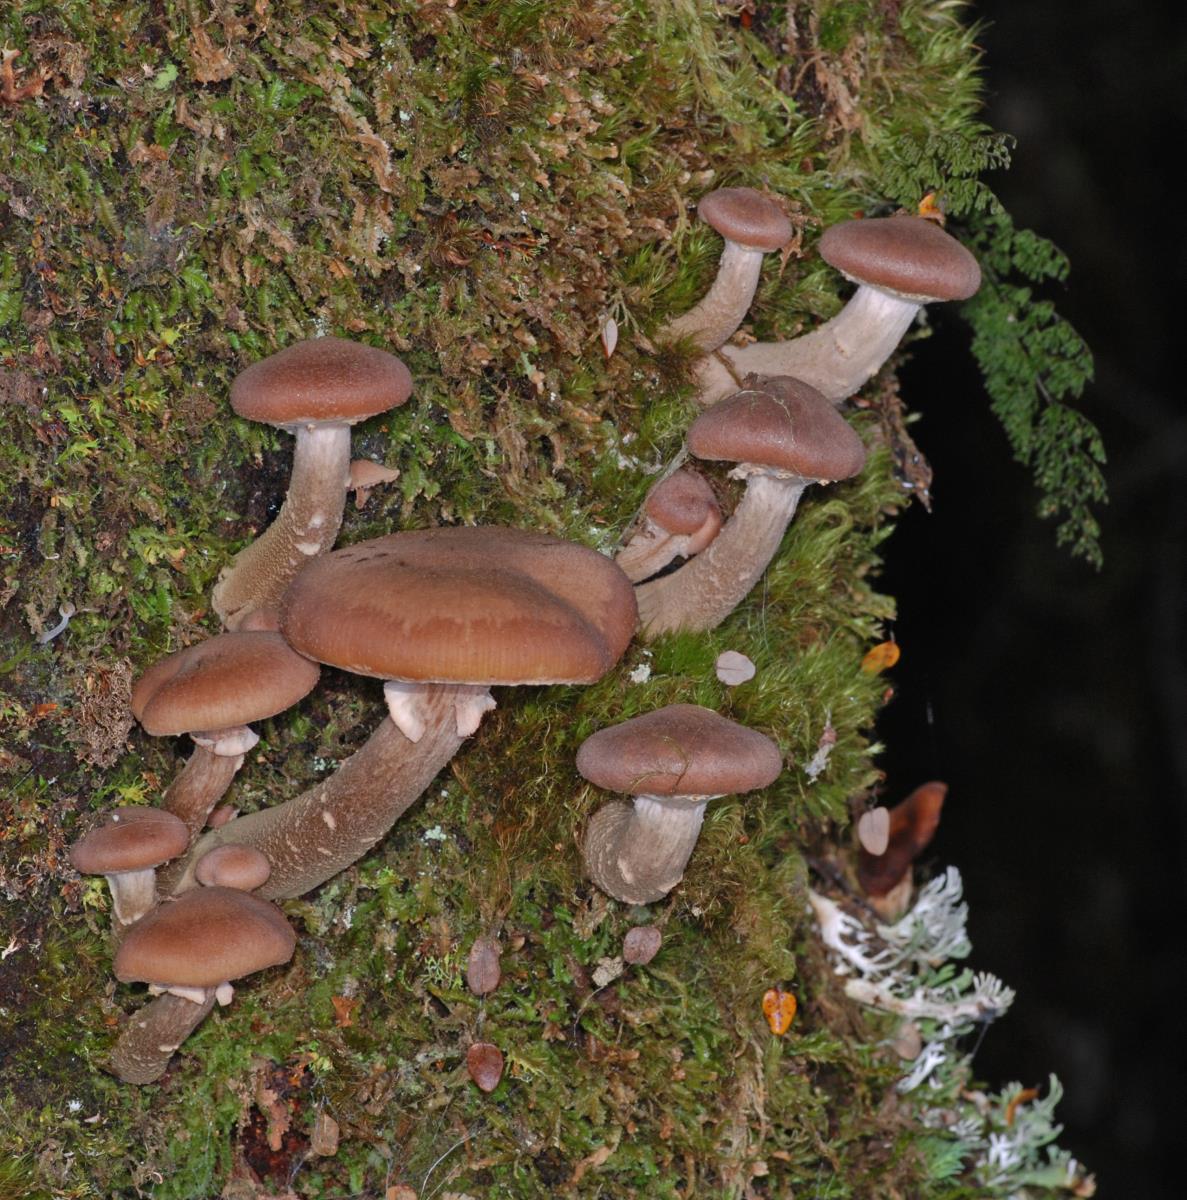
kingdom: Fungi
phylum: Basidiomycota
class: Agaricomycetes
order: Agaricales
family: Physalacriaceae
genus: Armillaria
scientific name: Armillaria novae-zelandiae
